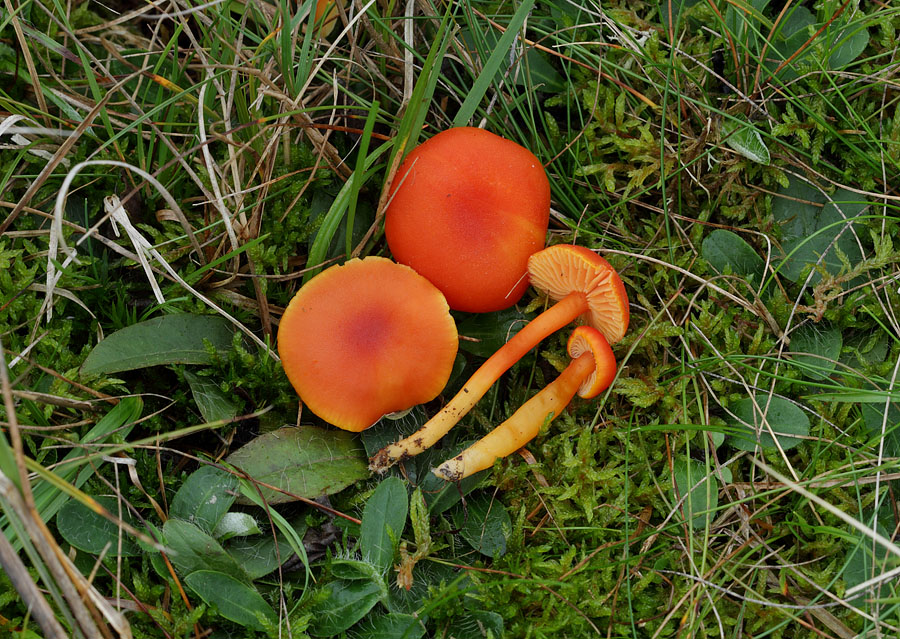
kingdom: Fungi
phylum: Basidiomycota
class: Agaricomycetes
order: Agaricales
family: Hygrophoraceae
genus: Hygrocybe
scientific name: Hygrocybe miniata
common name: mønje-vokshat
